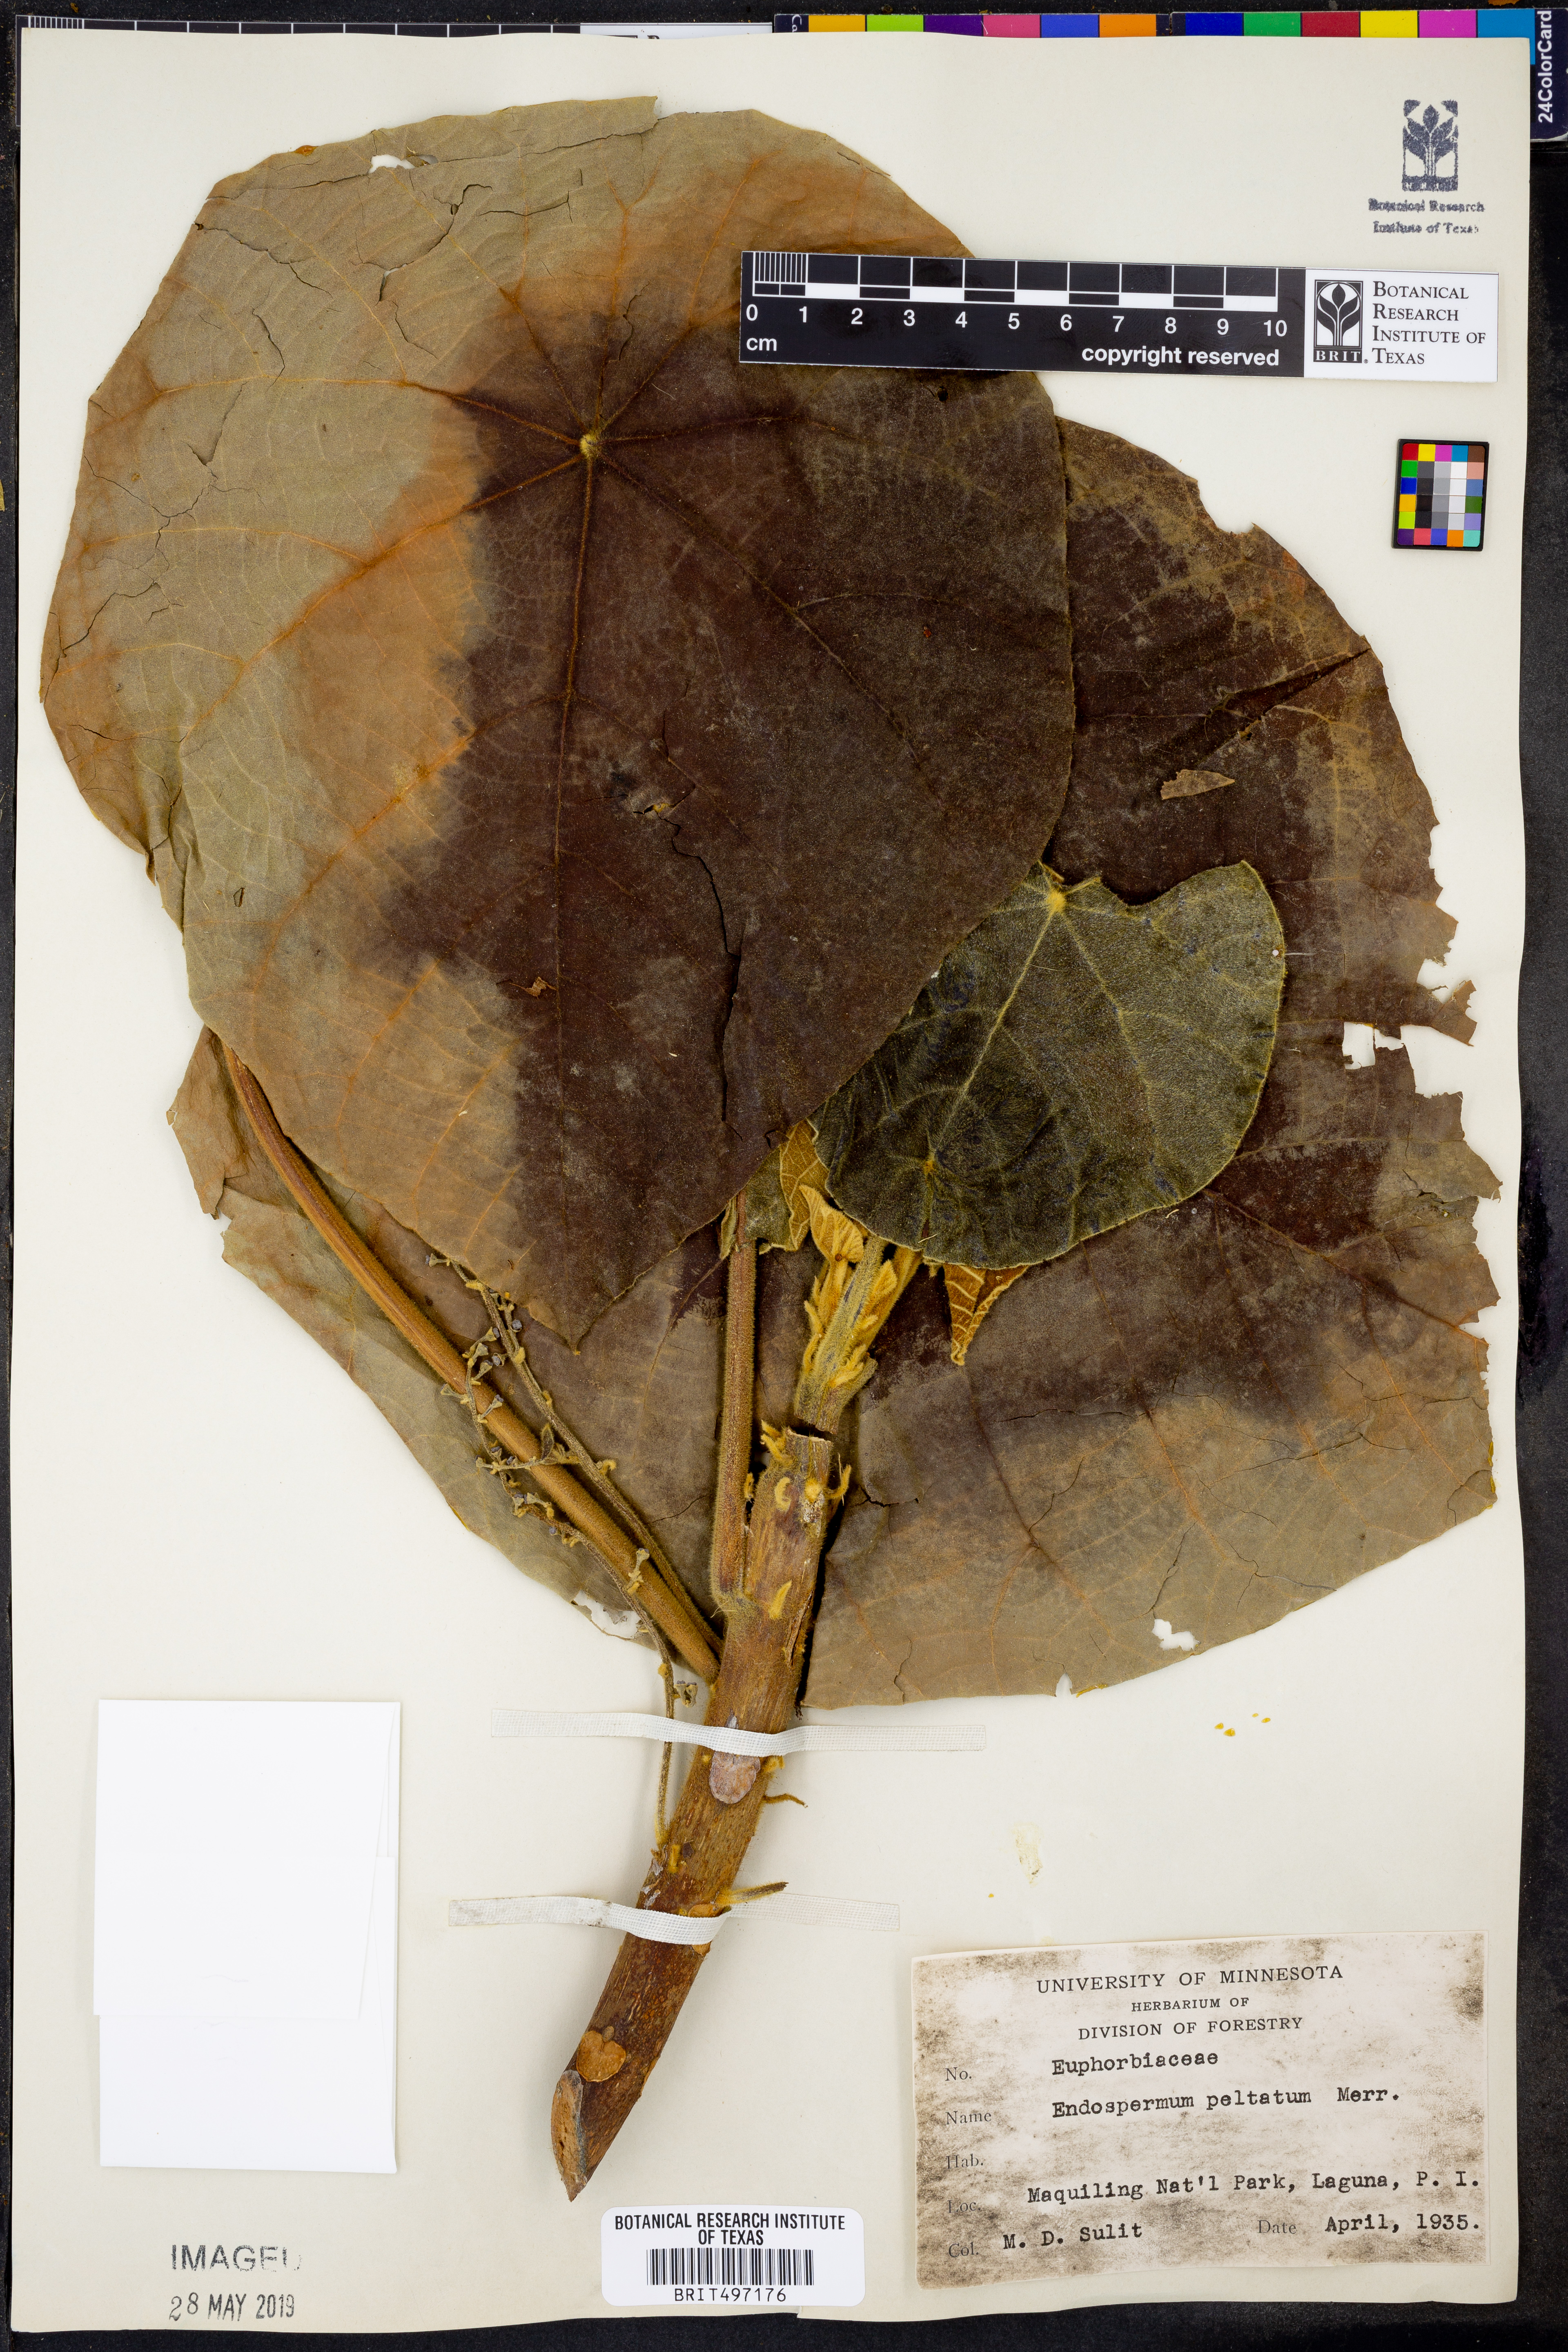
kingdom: Plantae
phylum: Tracheophyta
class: Magnoliopsida
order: Malpighiales
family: Euphorbiaceae
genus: Endospermum
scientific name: Endospermum peltatum
